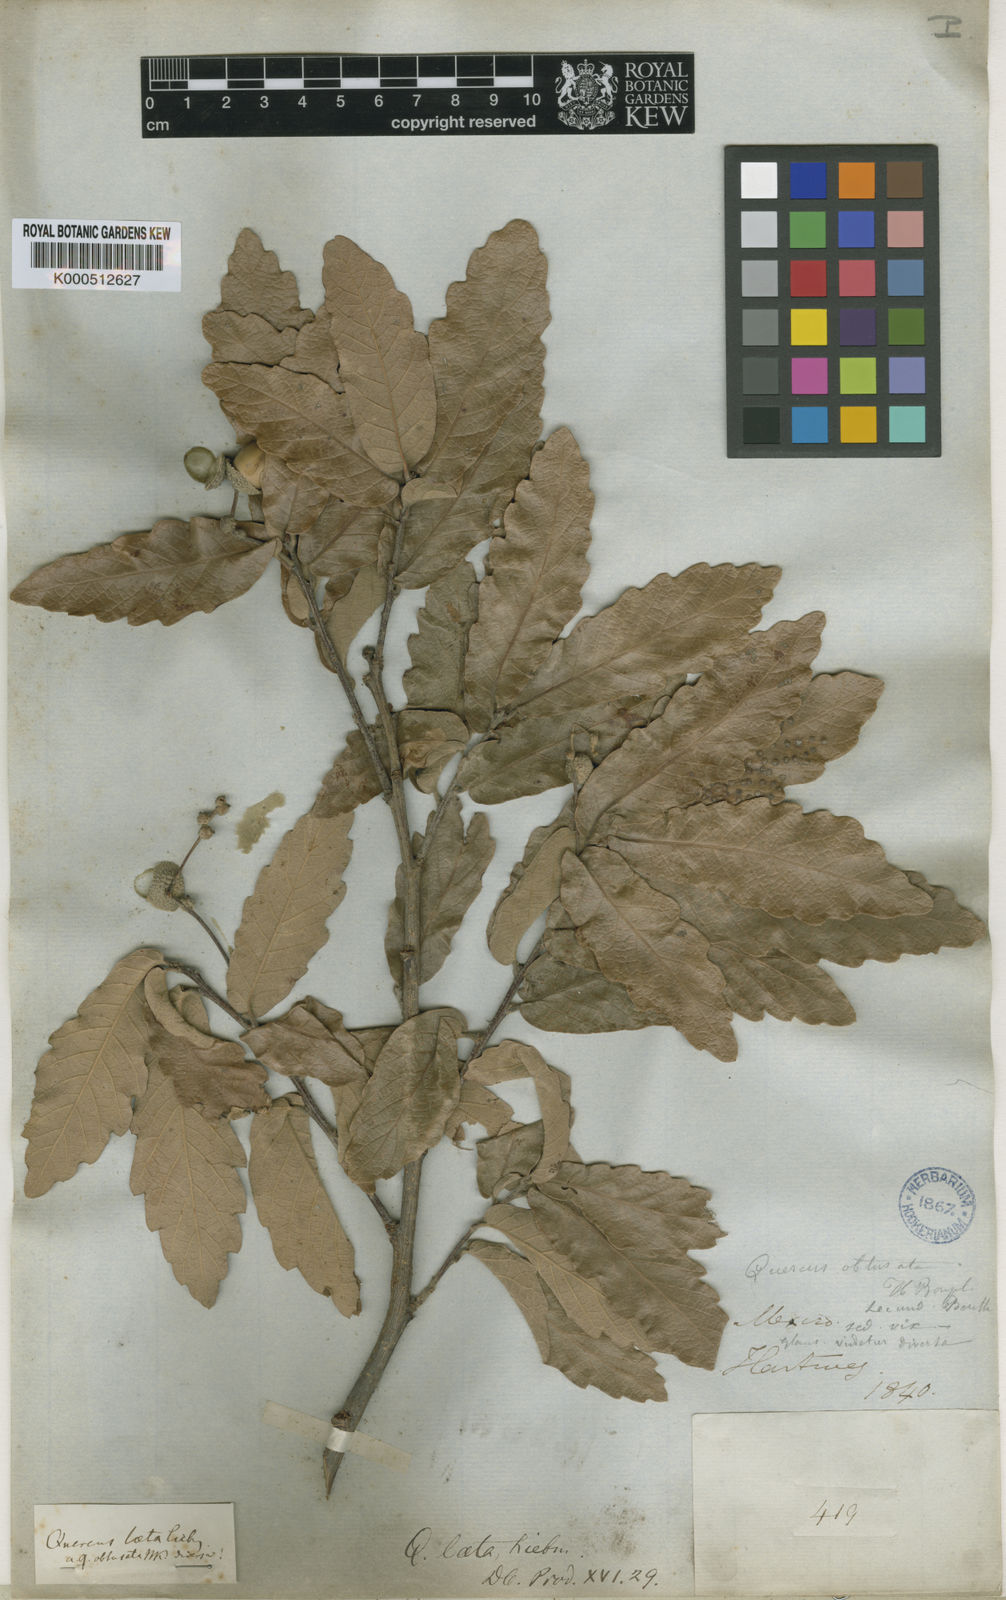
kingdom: Plantae
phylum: Tracheophyta
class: Magnoliopsida
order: Fagales
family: Fagaceae
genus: Quercus
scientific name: Quercus laeta
